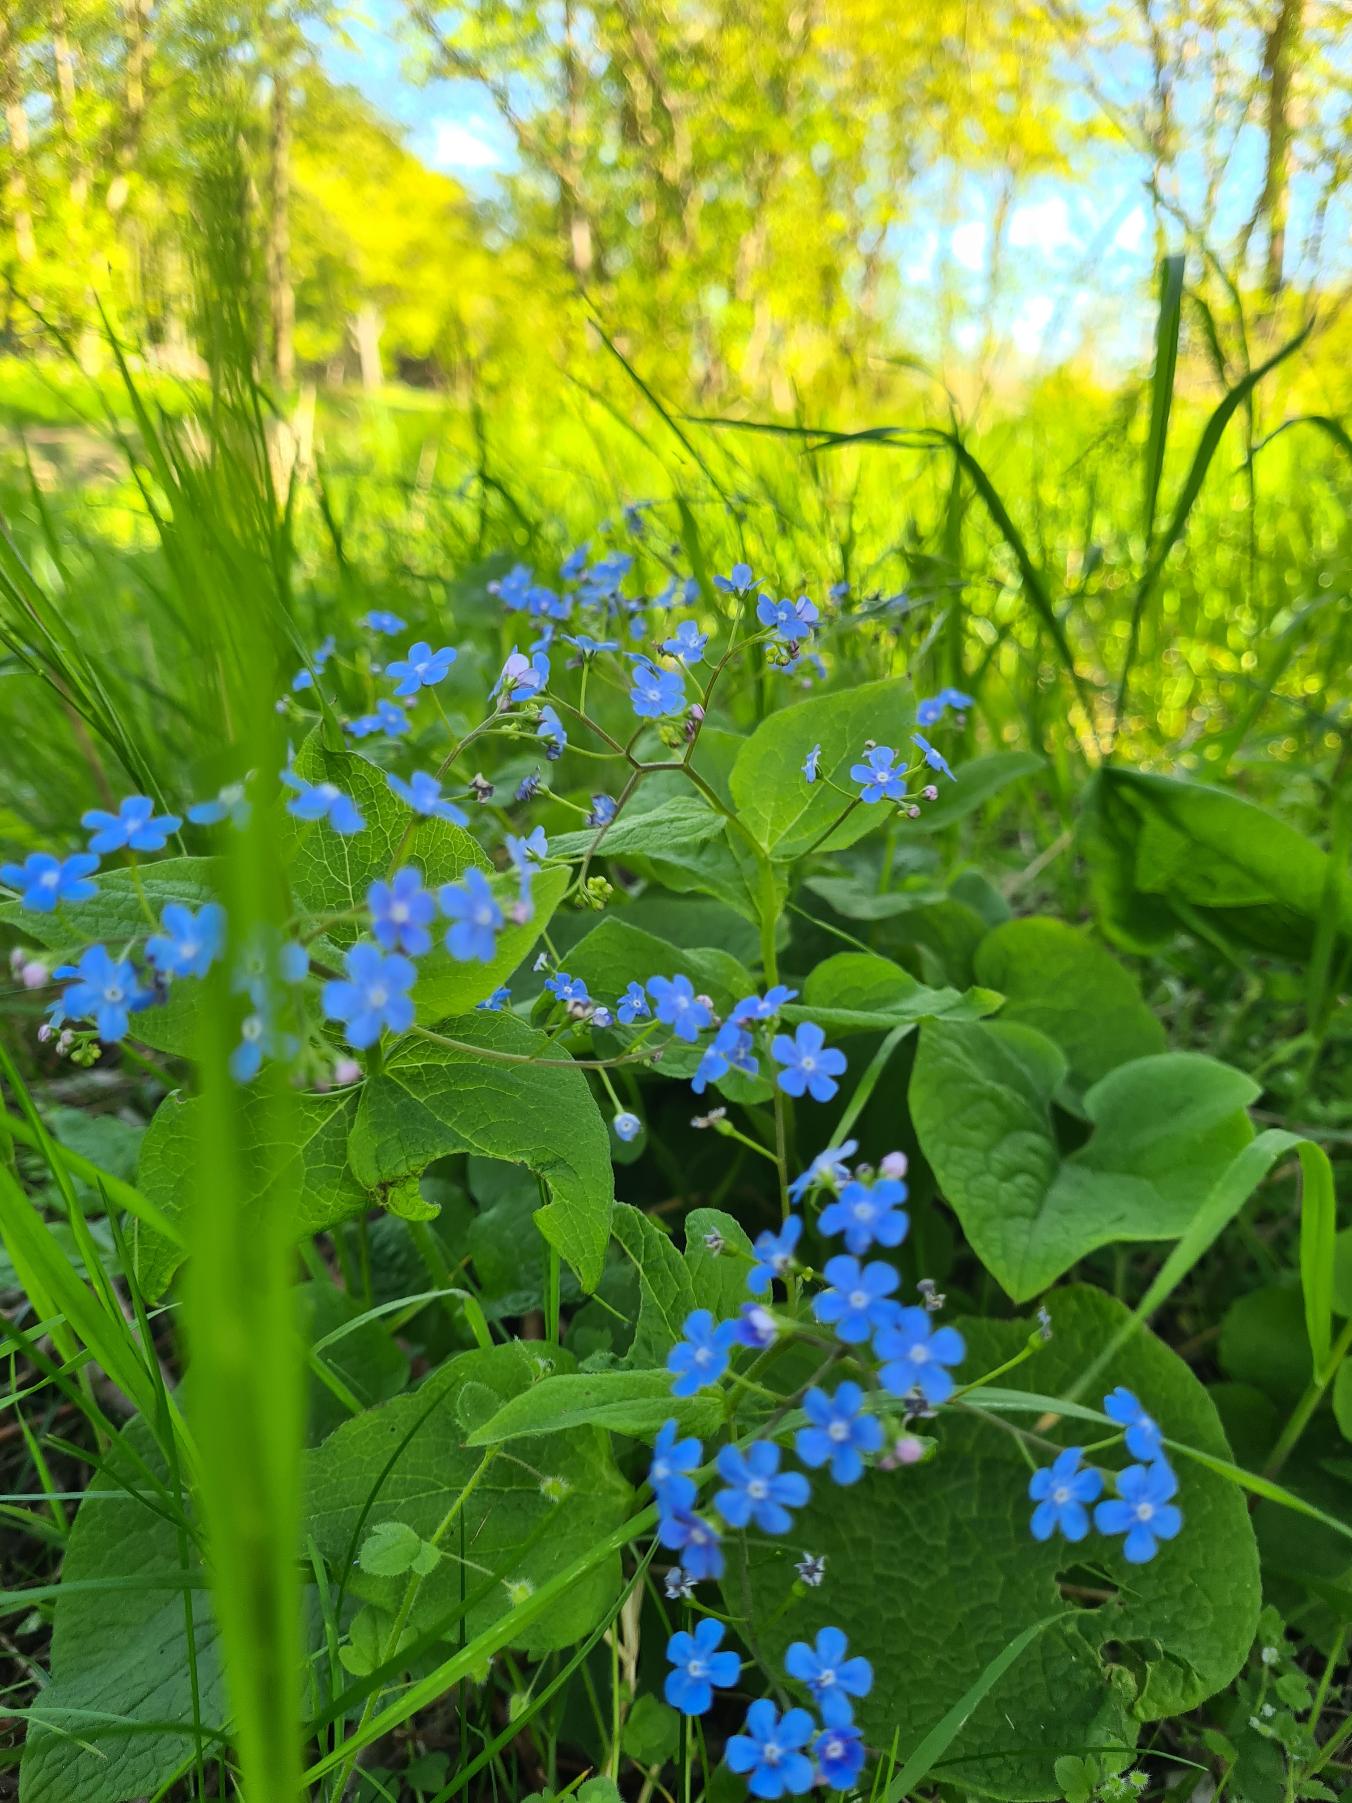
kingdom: Plantae
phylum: Tracheophyta
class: Magnoliopsida
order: Boraginales
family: Boraginaceae
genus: Brunnera
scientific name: Brunnera macrophylla
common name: Kærmindesøster
